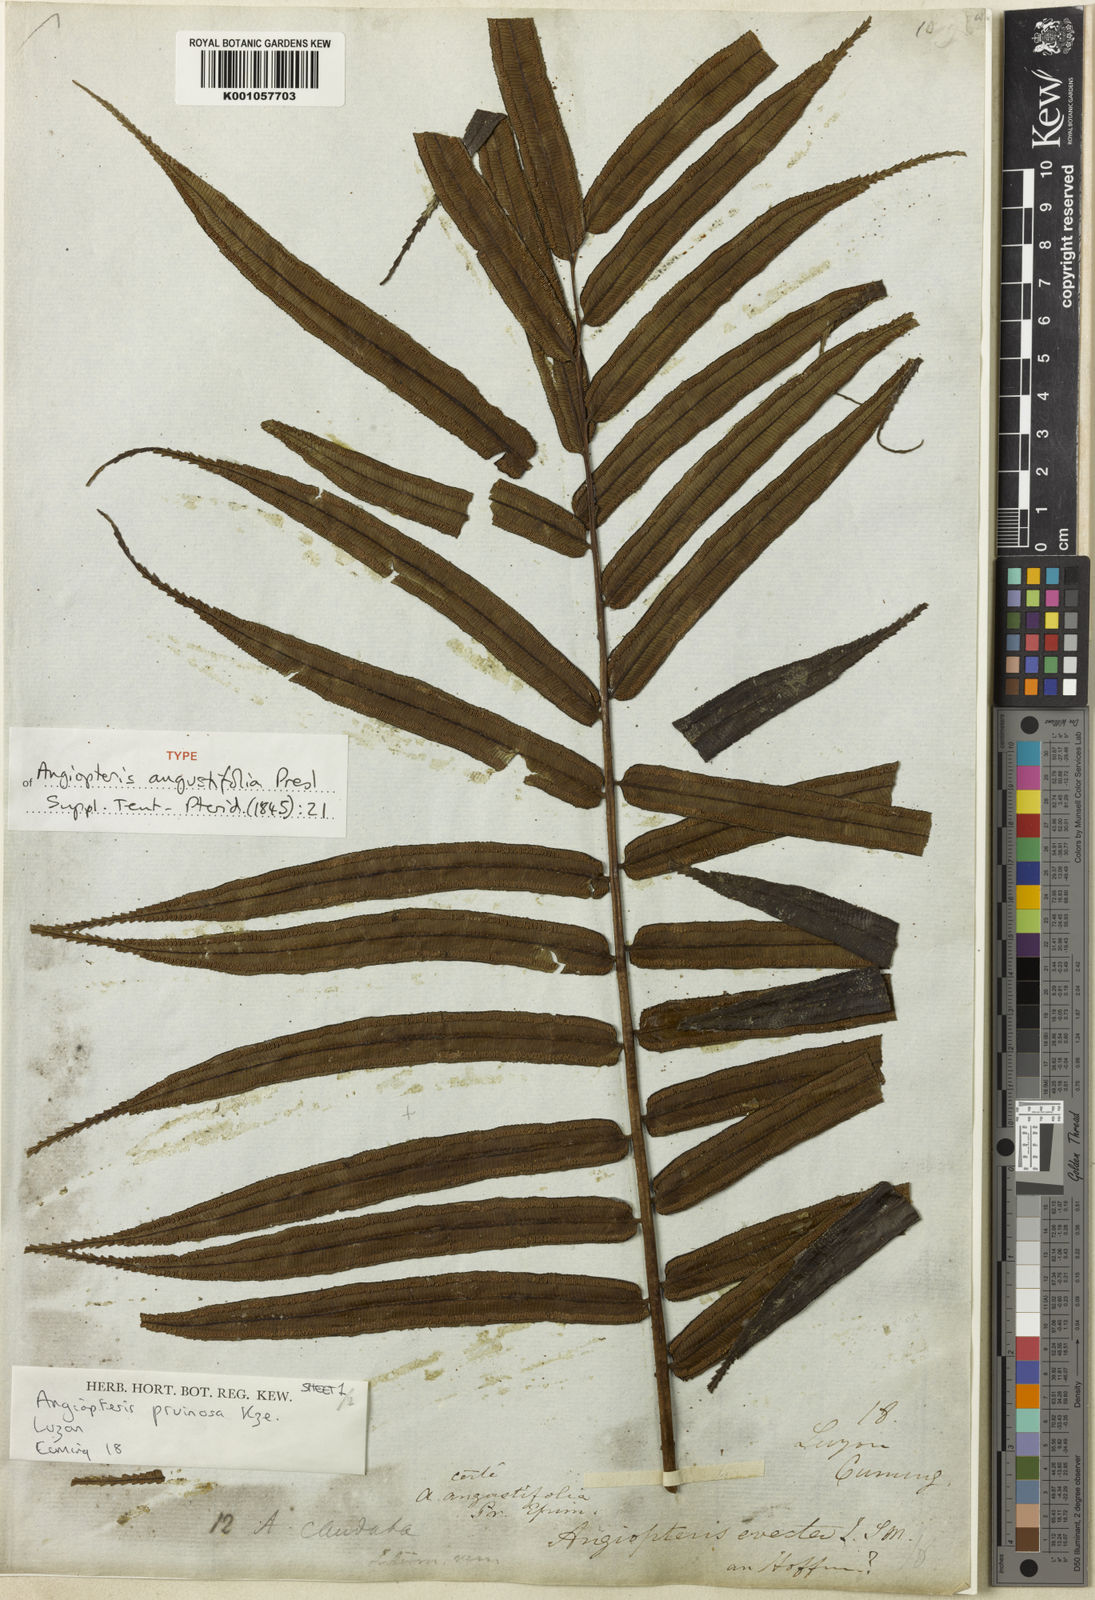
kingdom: Plantae
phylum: Tracheophyta
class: Polypodiopsida
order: Marattiales
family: Marattiaceae
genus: Angiopteris
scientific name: Angiopteris angustifolia
